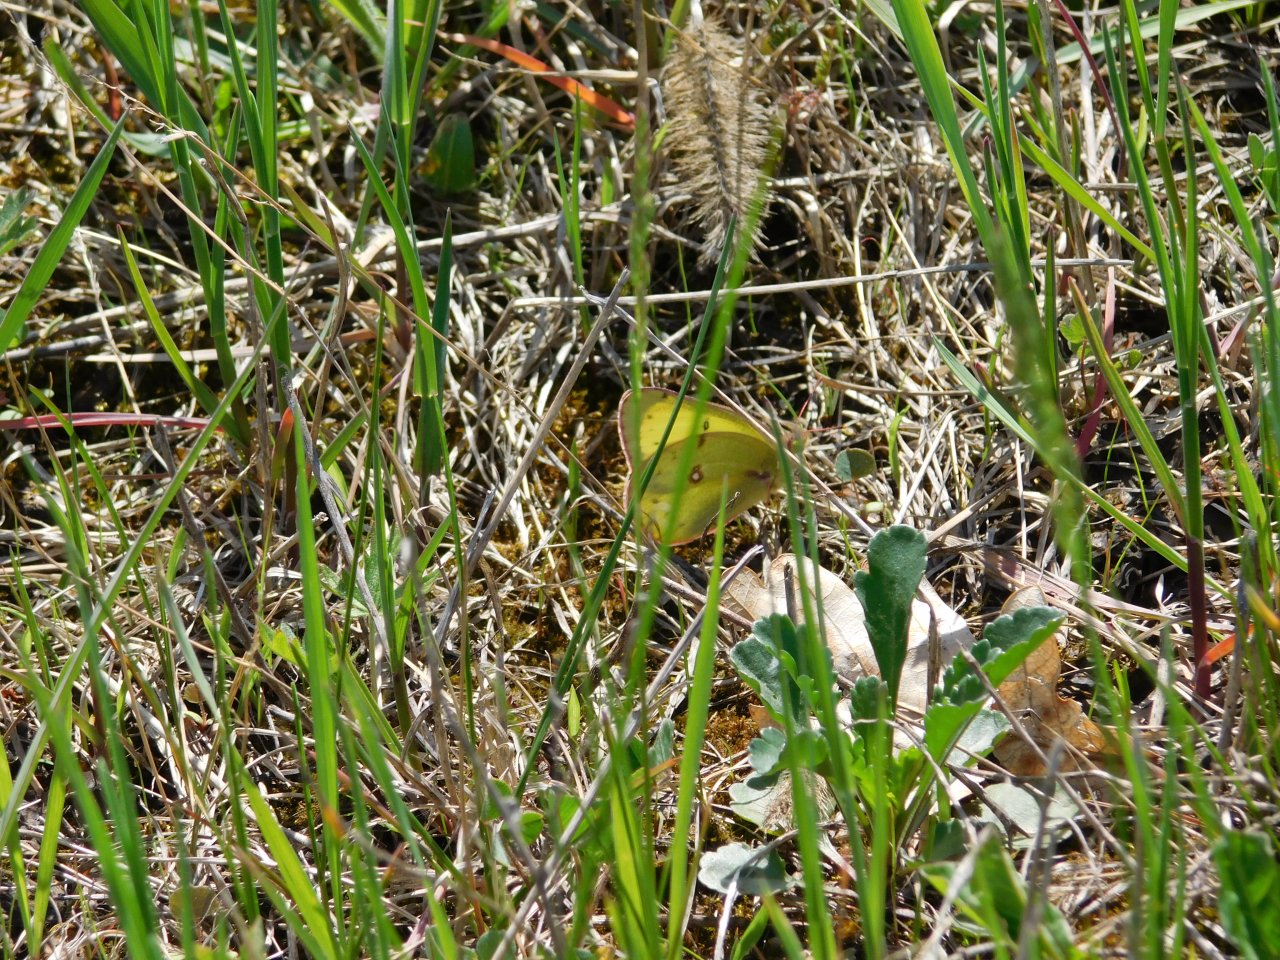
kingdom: Animalia
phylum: Arthropoda
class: Insecta
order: Lepidoptera
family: Pieridae
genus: Colias
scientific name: Colias philodice
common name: Clouded Sulphur
